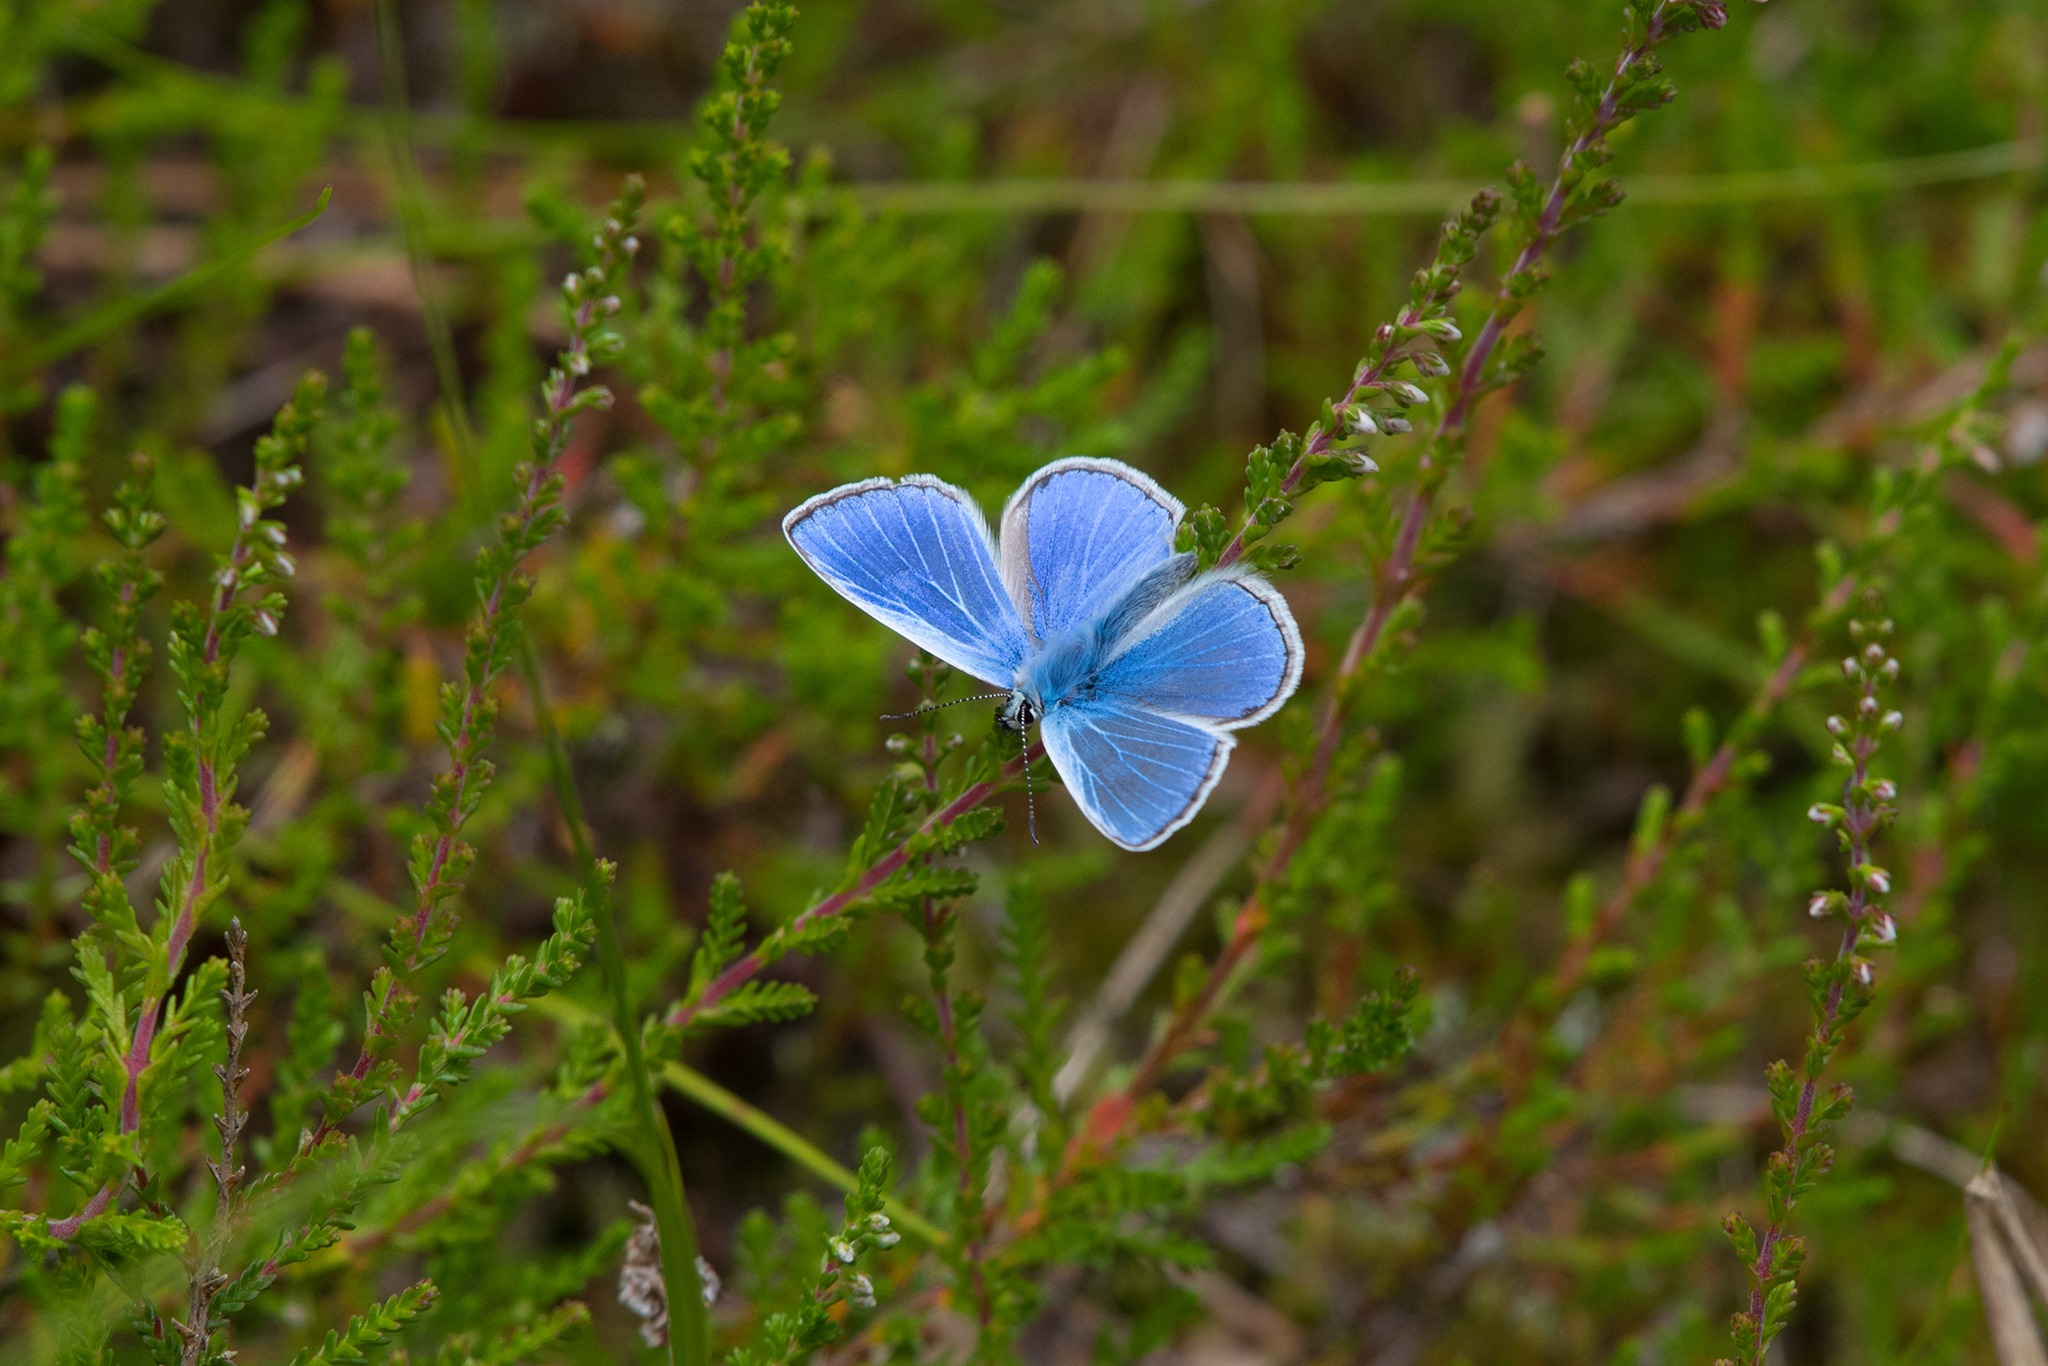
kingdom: Animalia
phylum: Arthropoda
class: Insecta
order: Lepidoptera
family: Lycaenidae
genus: Polyommatus
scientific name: Polyommatus icarus
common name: Almindelig blåfugl
